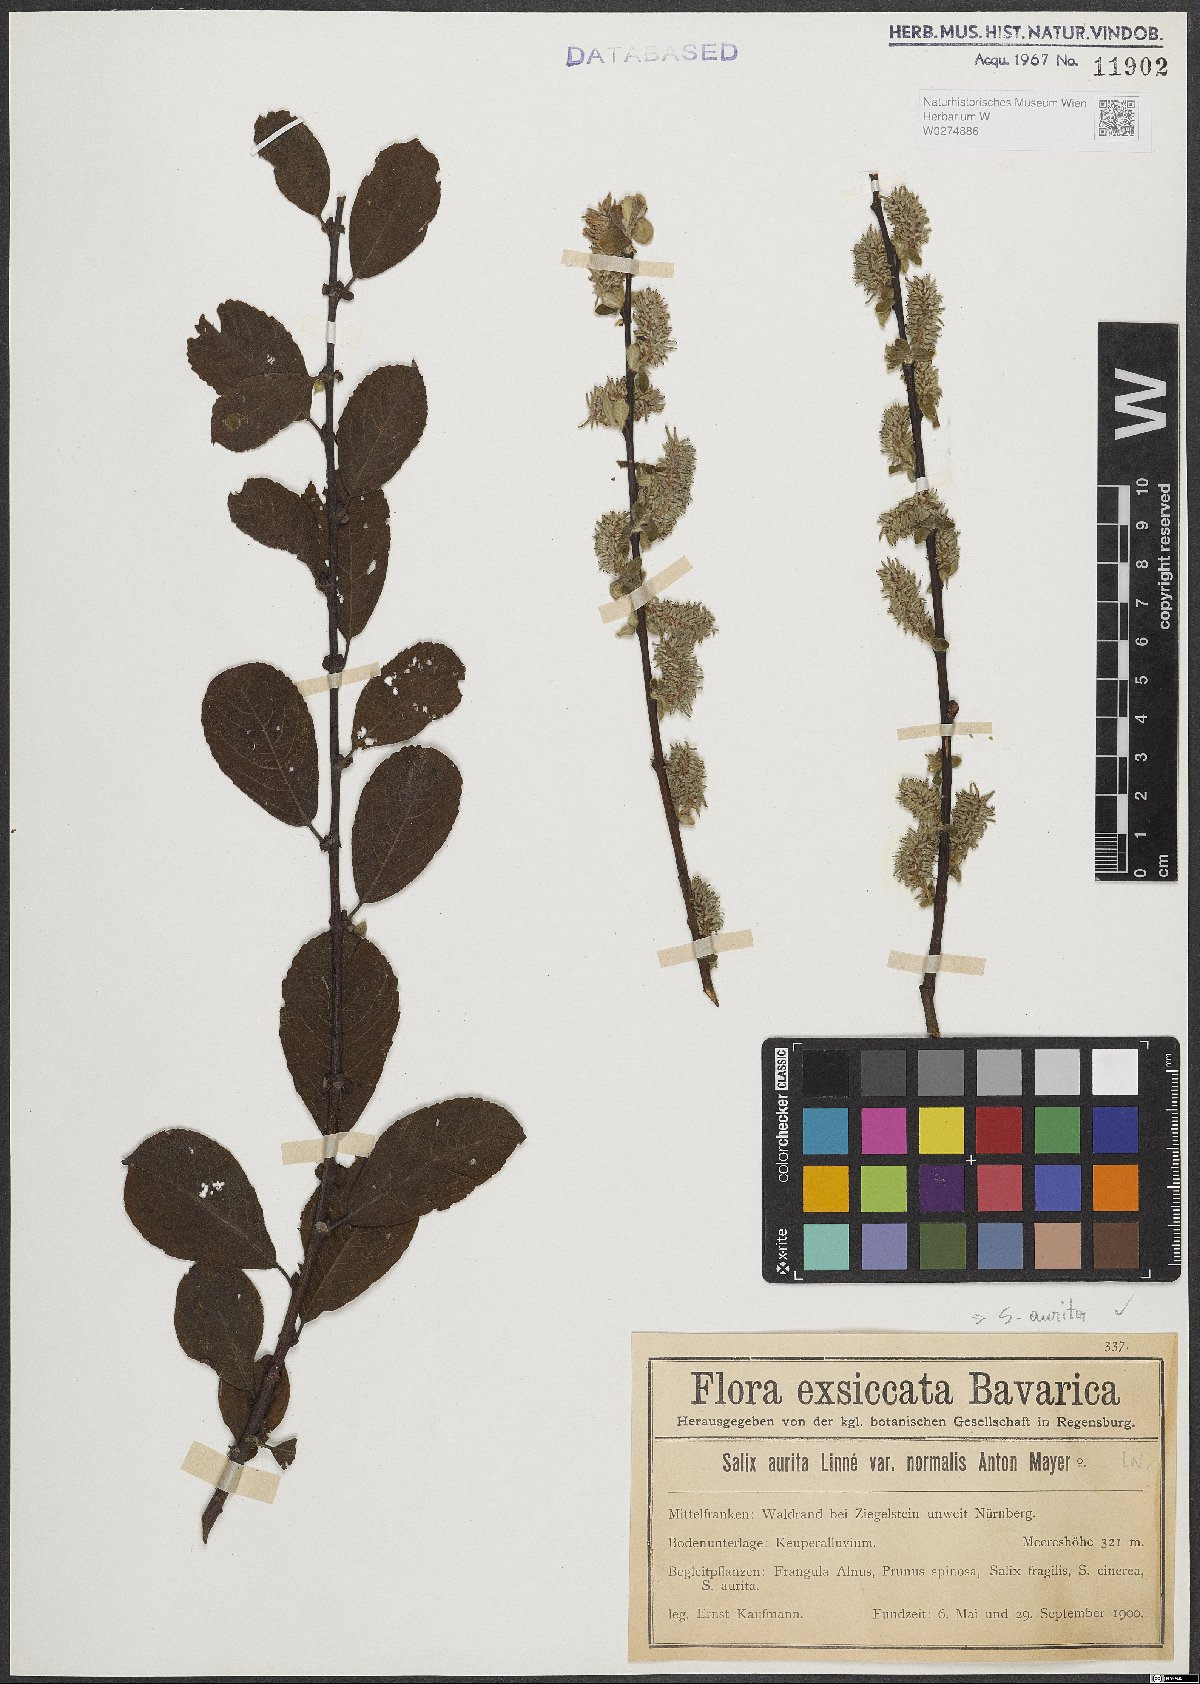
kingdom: Plantae
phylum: Tracheophyta
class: Magnoliopsida
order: Malpighiales
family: Salicaceae
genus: Salix
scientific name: Salix aurita
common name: Eared willow
